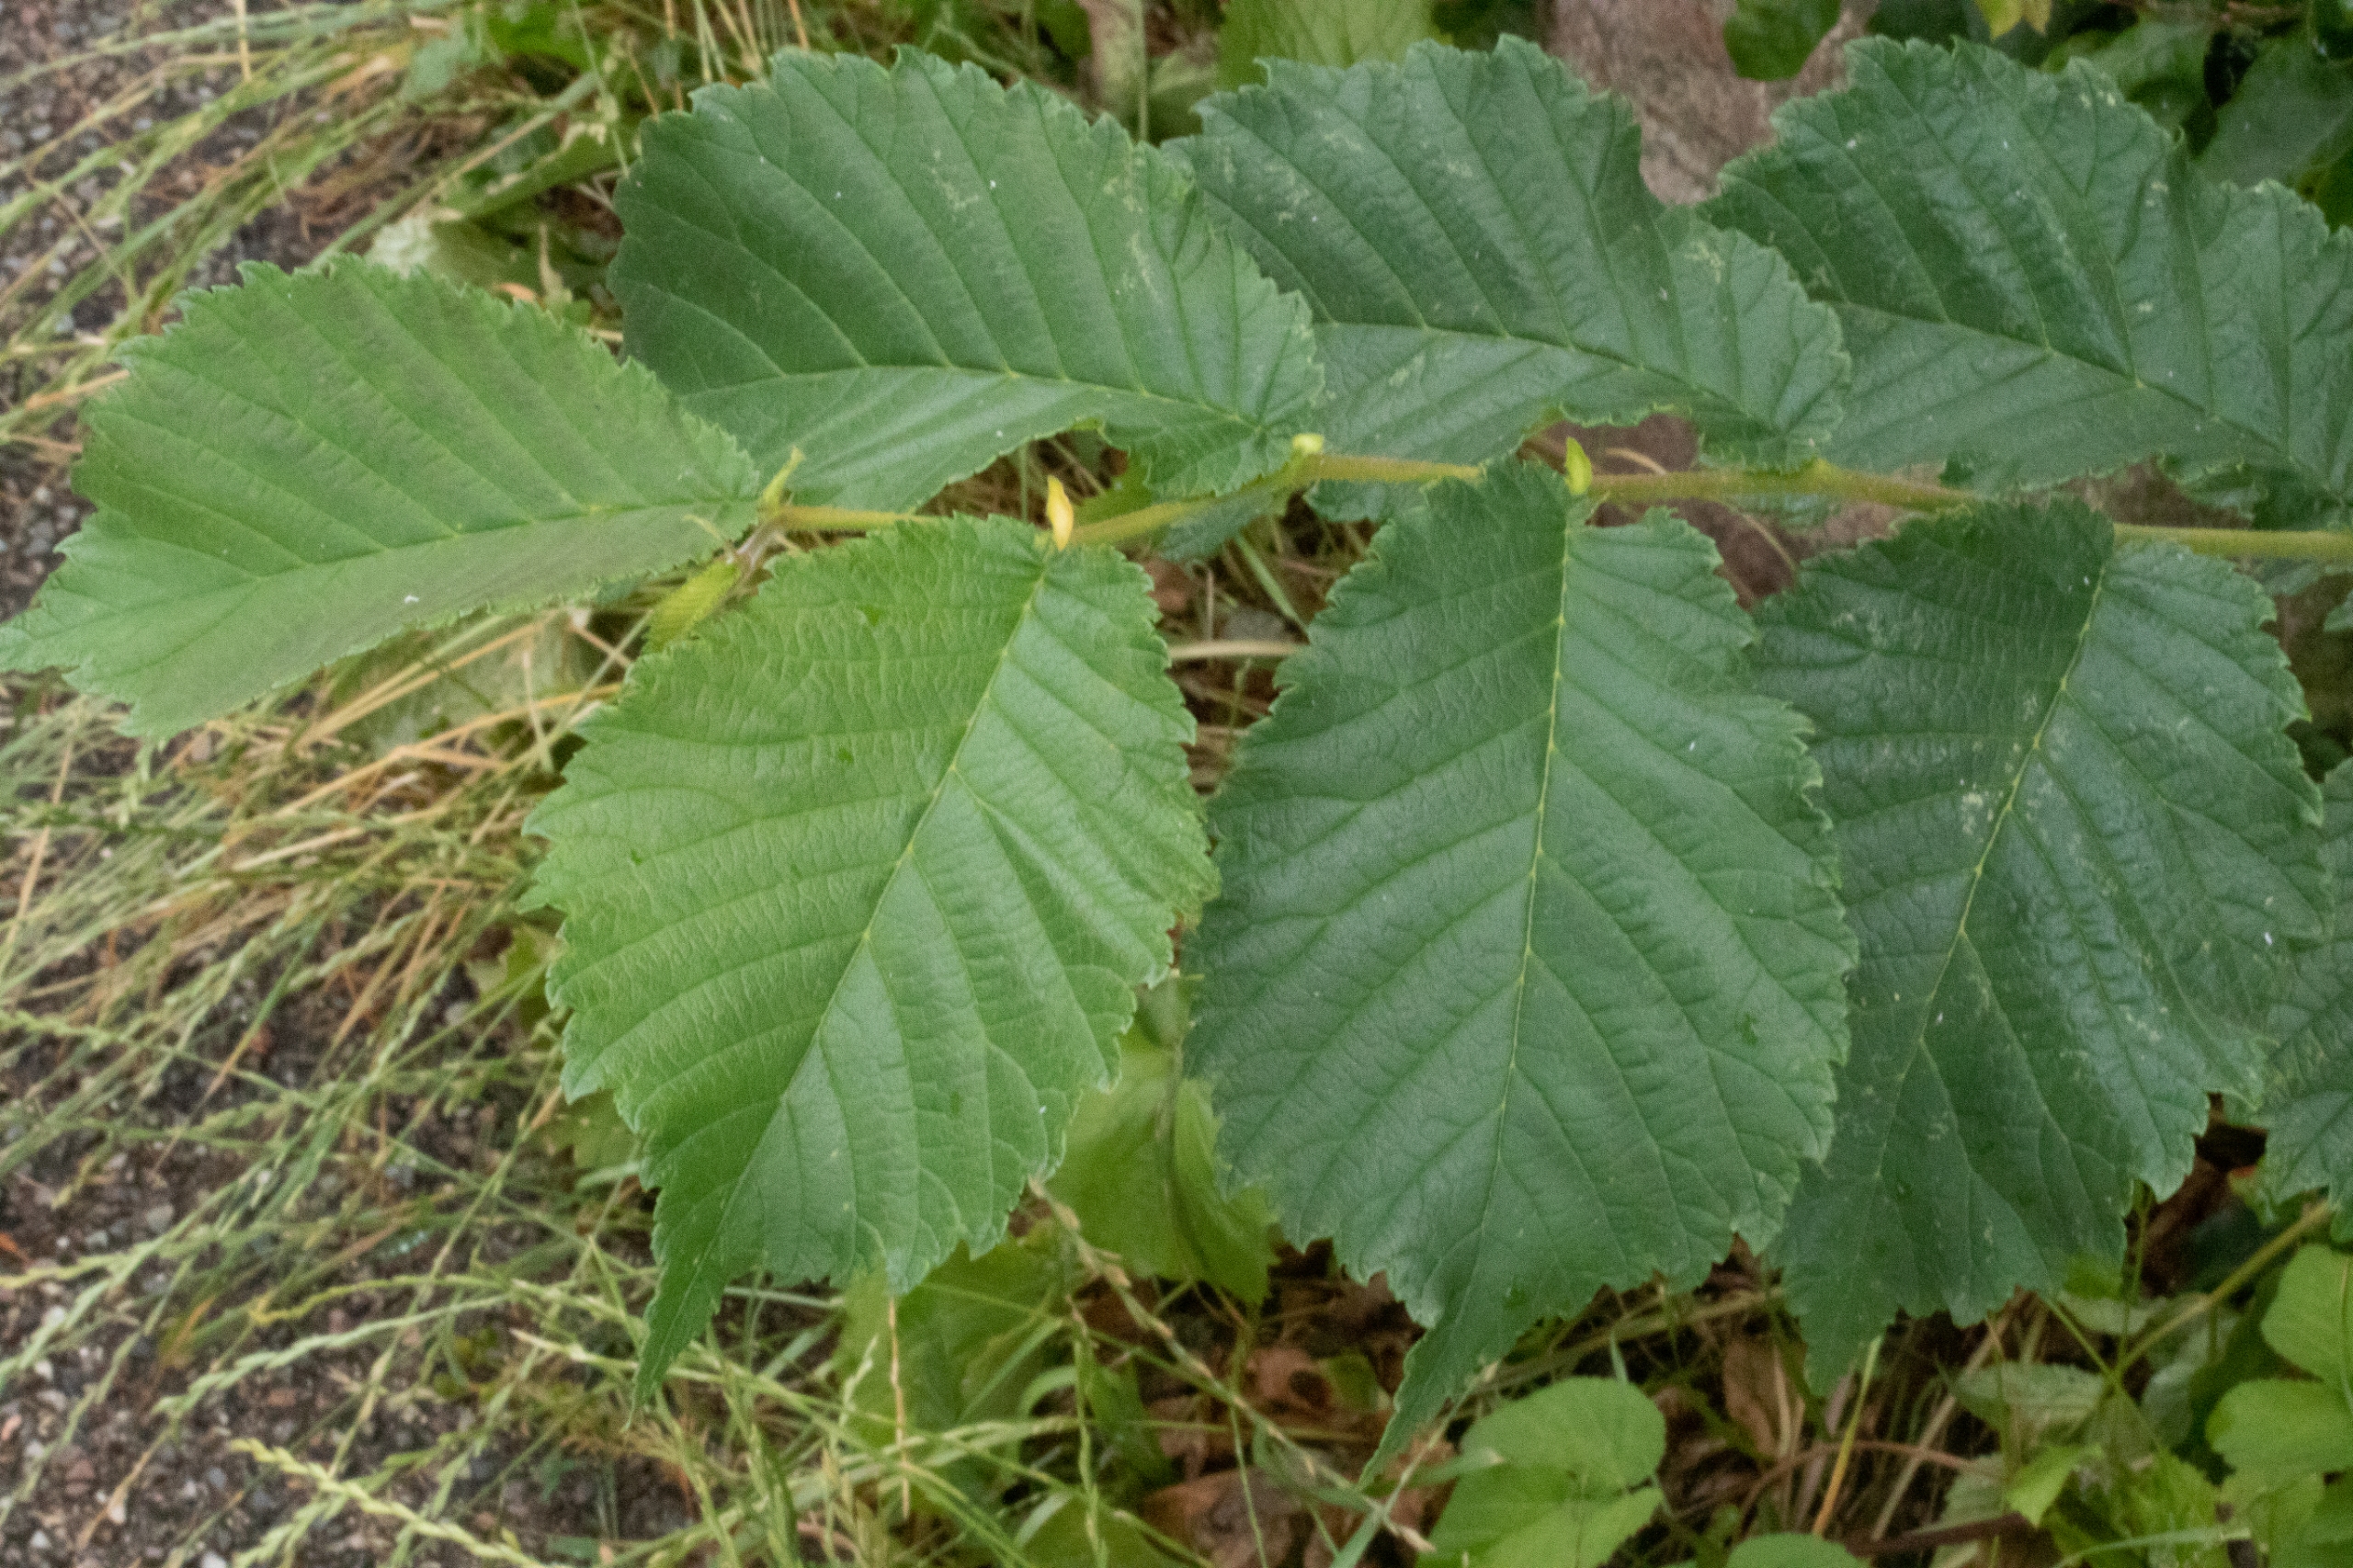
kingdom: Plantae
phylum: Tracheophyta
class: Magnoliopsida
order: Rosales
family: Ulmaceae
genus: Ulmus
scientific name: Ulmus glabra
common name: Skov-elm/storbladet elm
